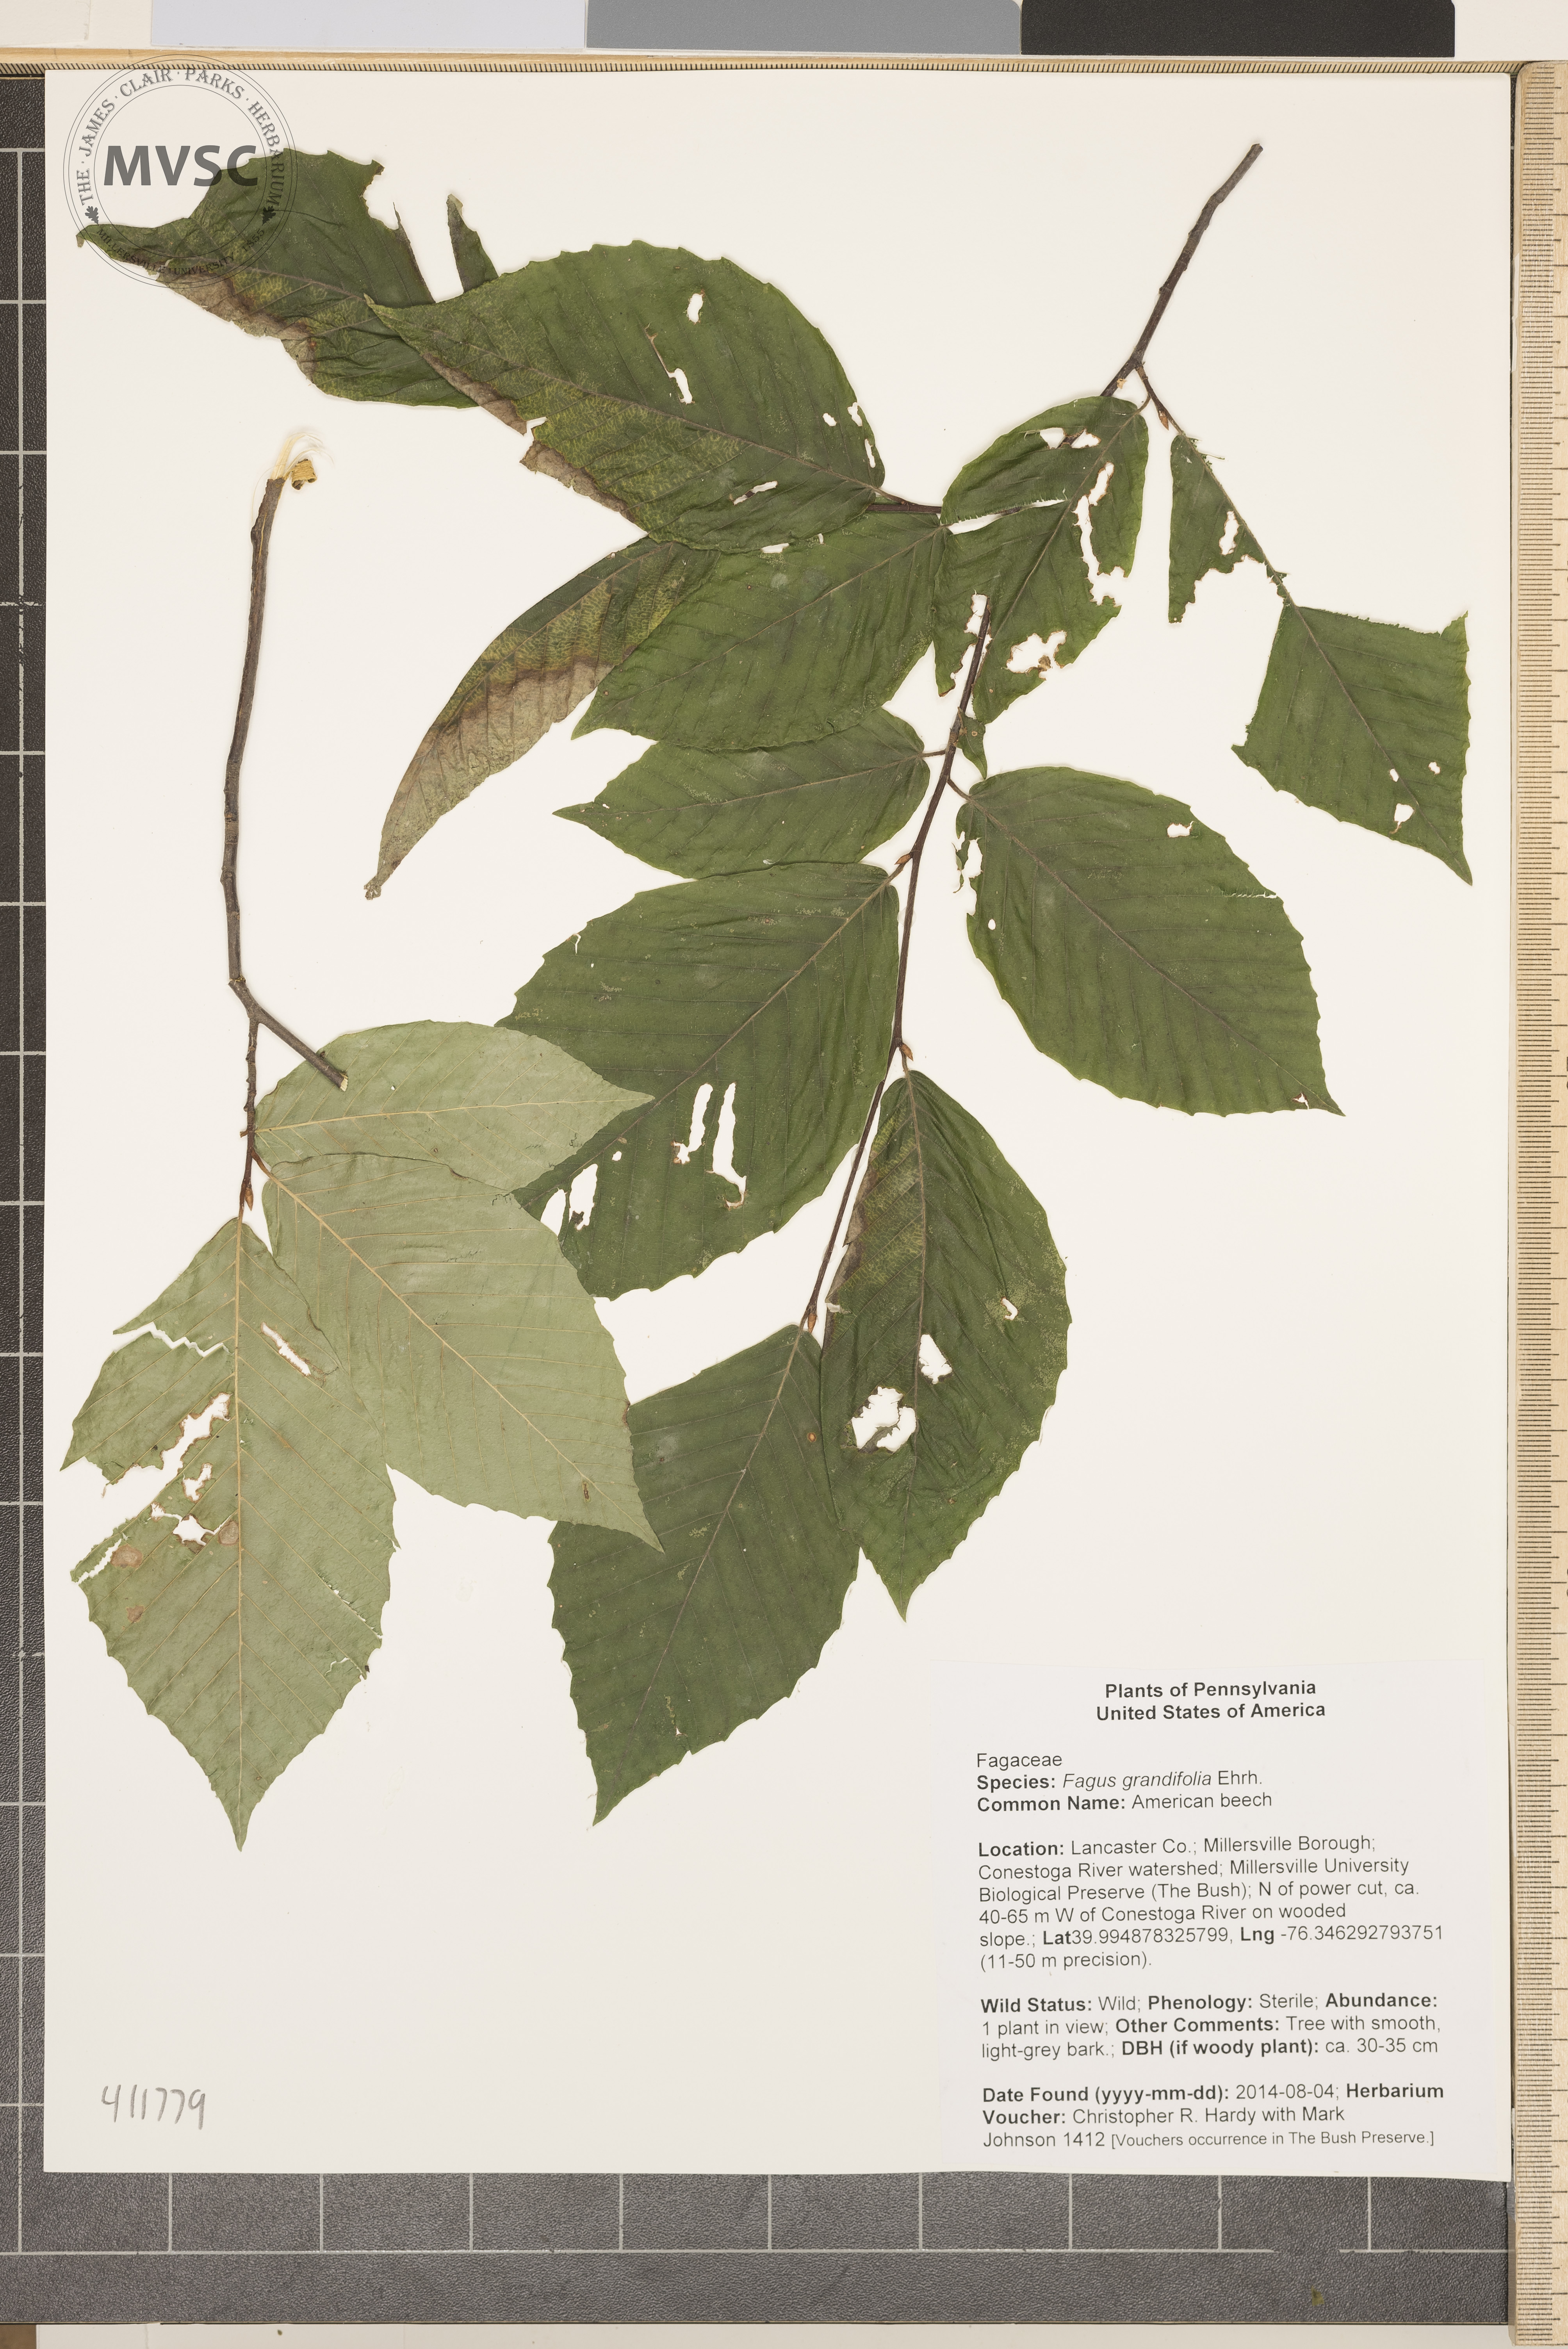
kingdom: Plantae
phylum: Tracheophyta
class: Magnoliopsida
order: Fagales
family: Fagaceae
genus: Fagus
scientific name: Fagus grandifolia
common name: American beech
